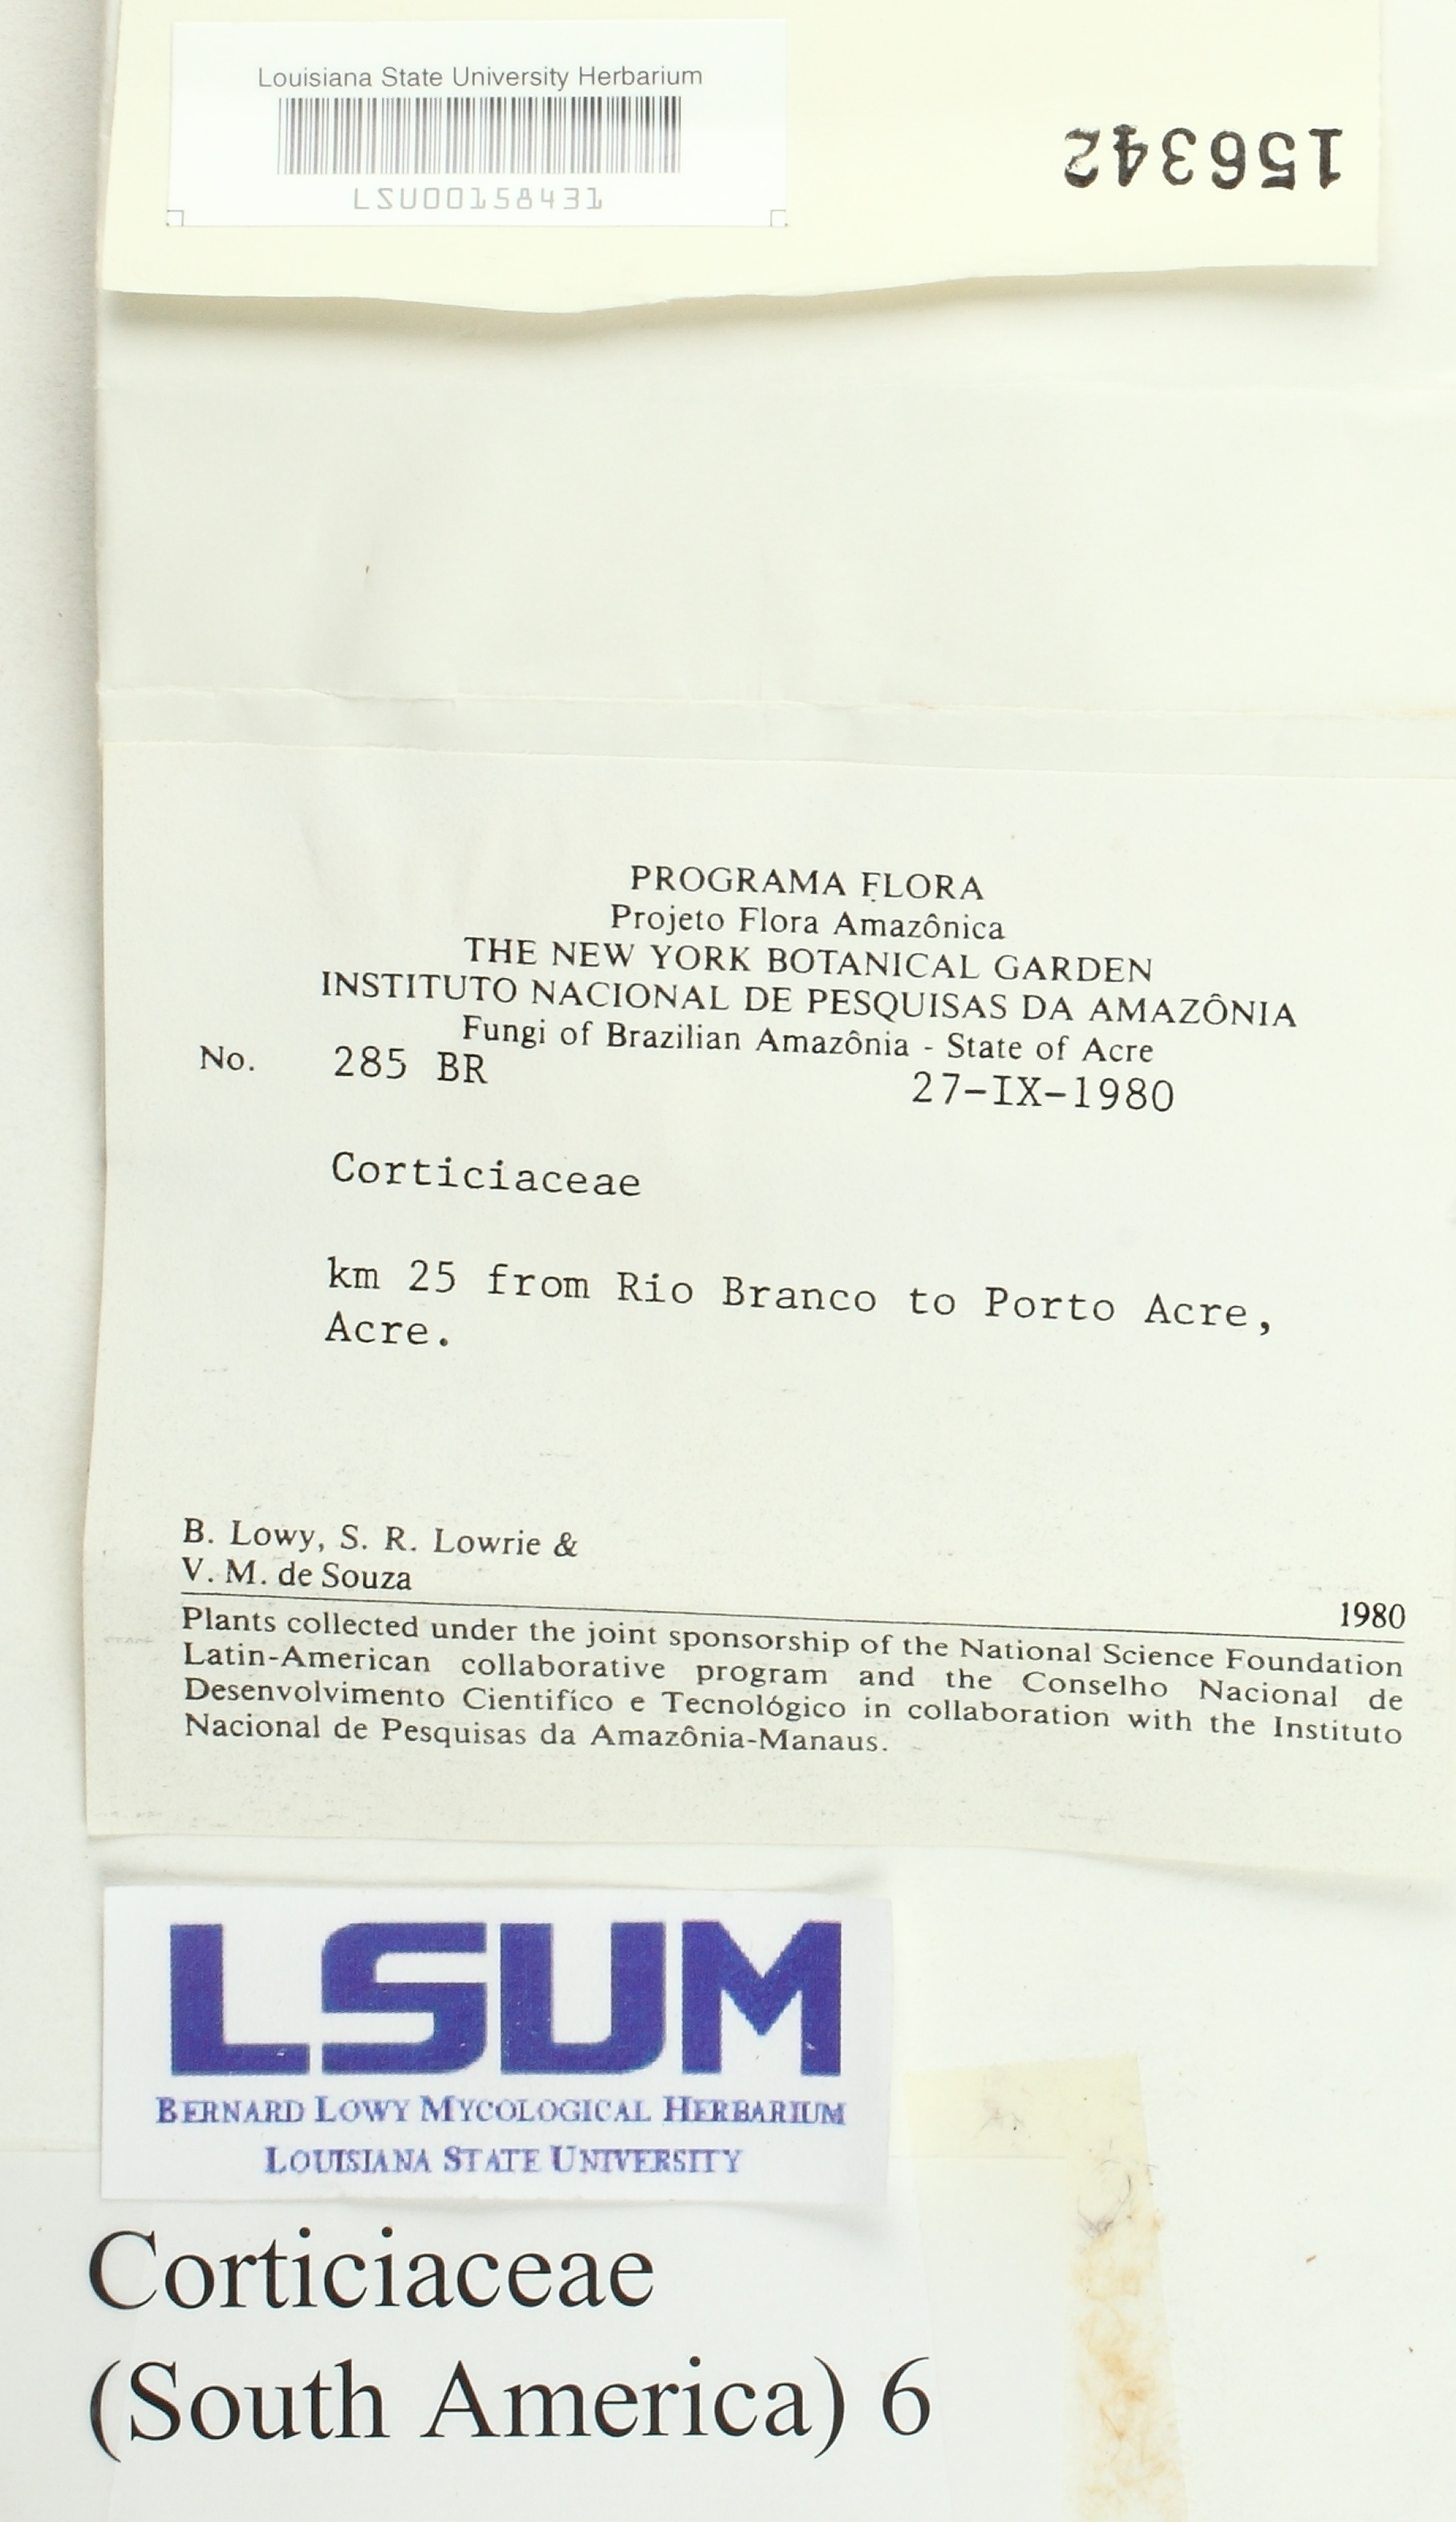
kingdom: Fungi
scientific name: Fungi
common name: Fungi
